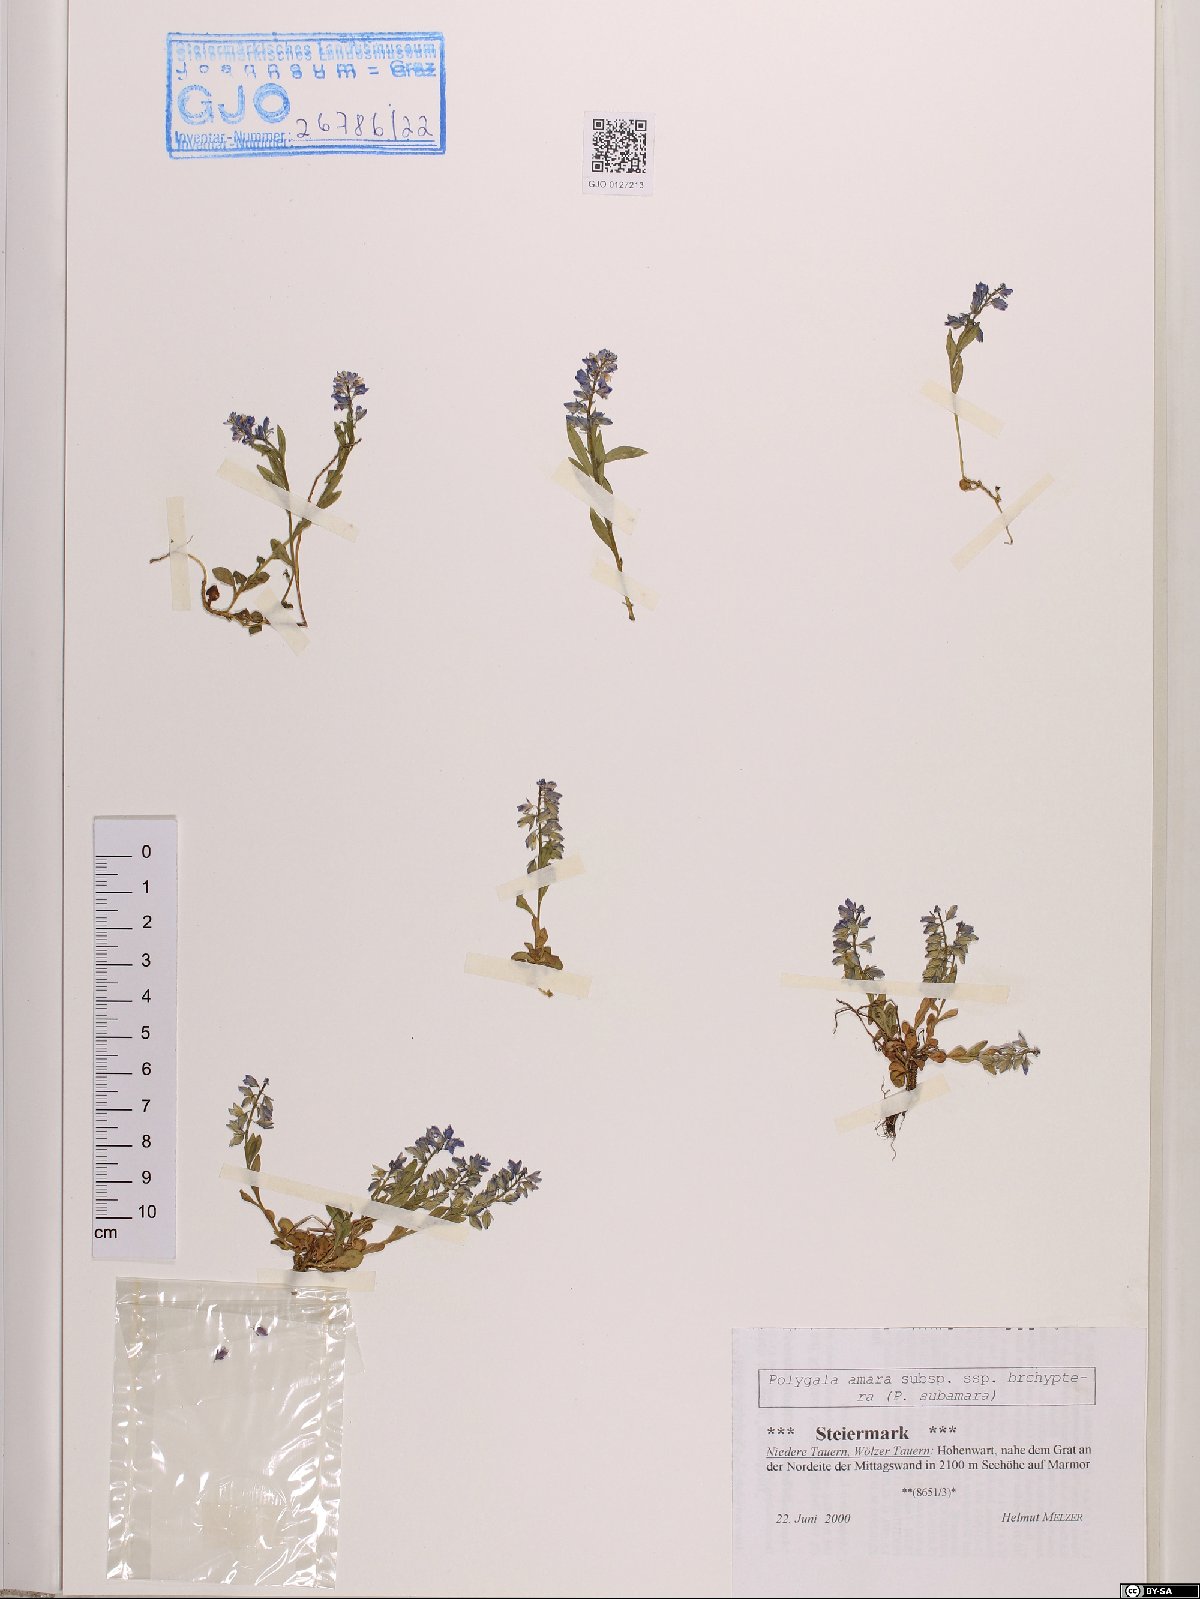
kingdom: Plantae
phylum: Tracheophyta
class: Magnoliopsida
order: Fabales
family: Polygalaceae
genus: Polygala
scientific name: Polygala amara
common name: Milkwort
